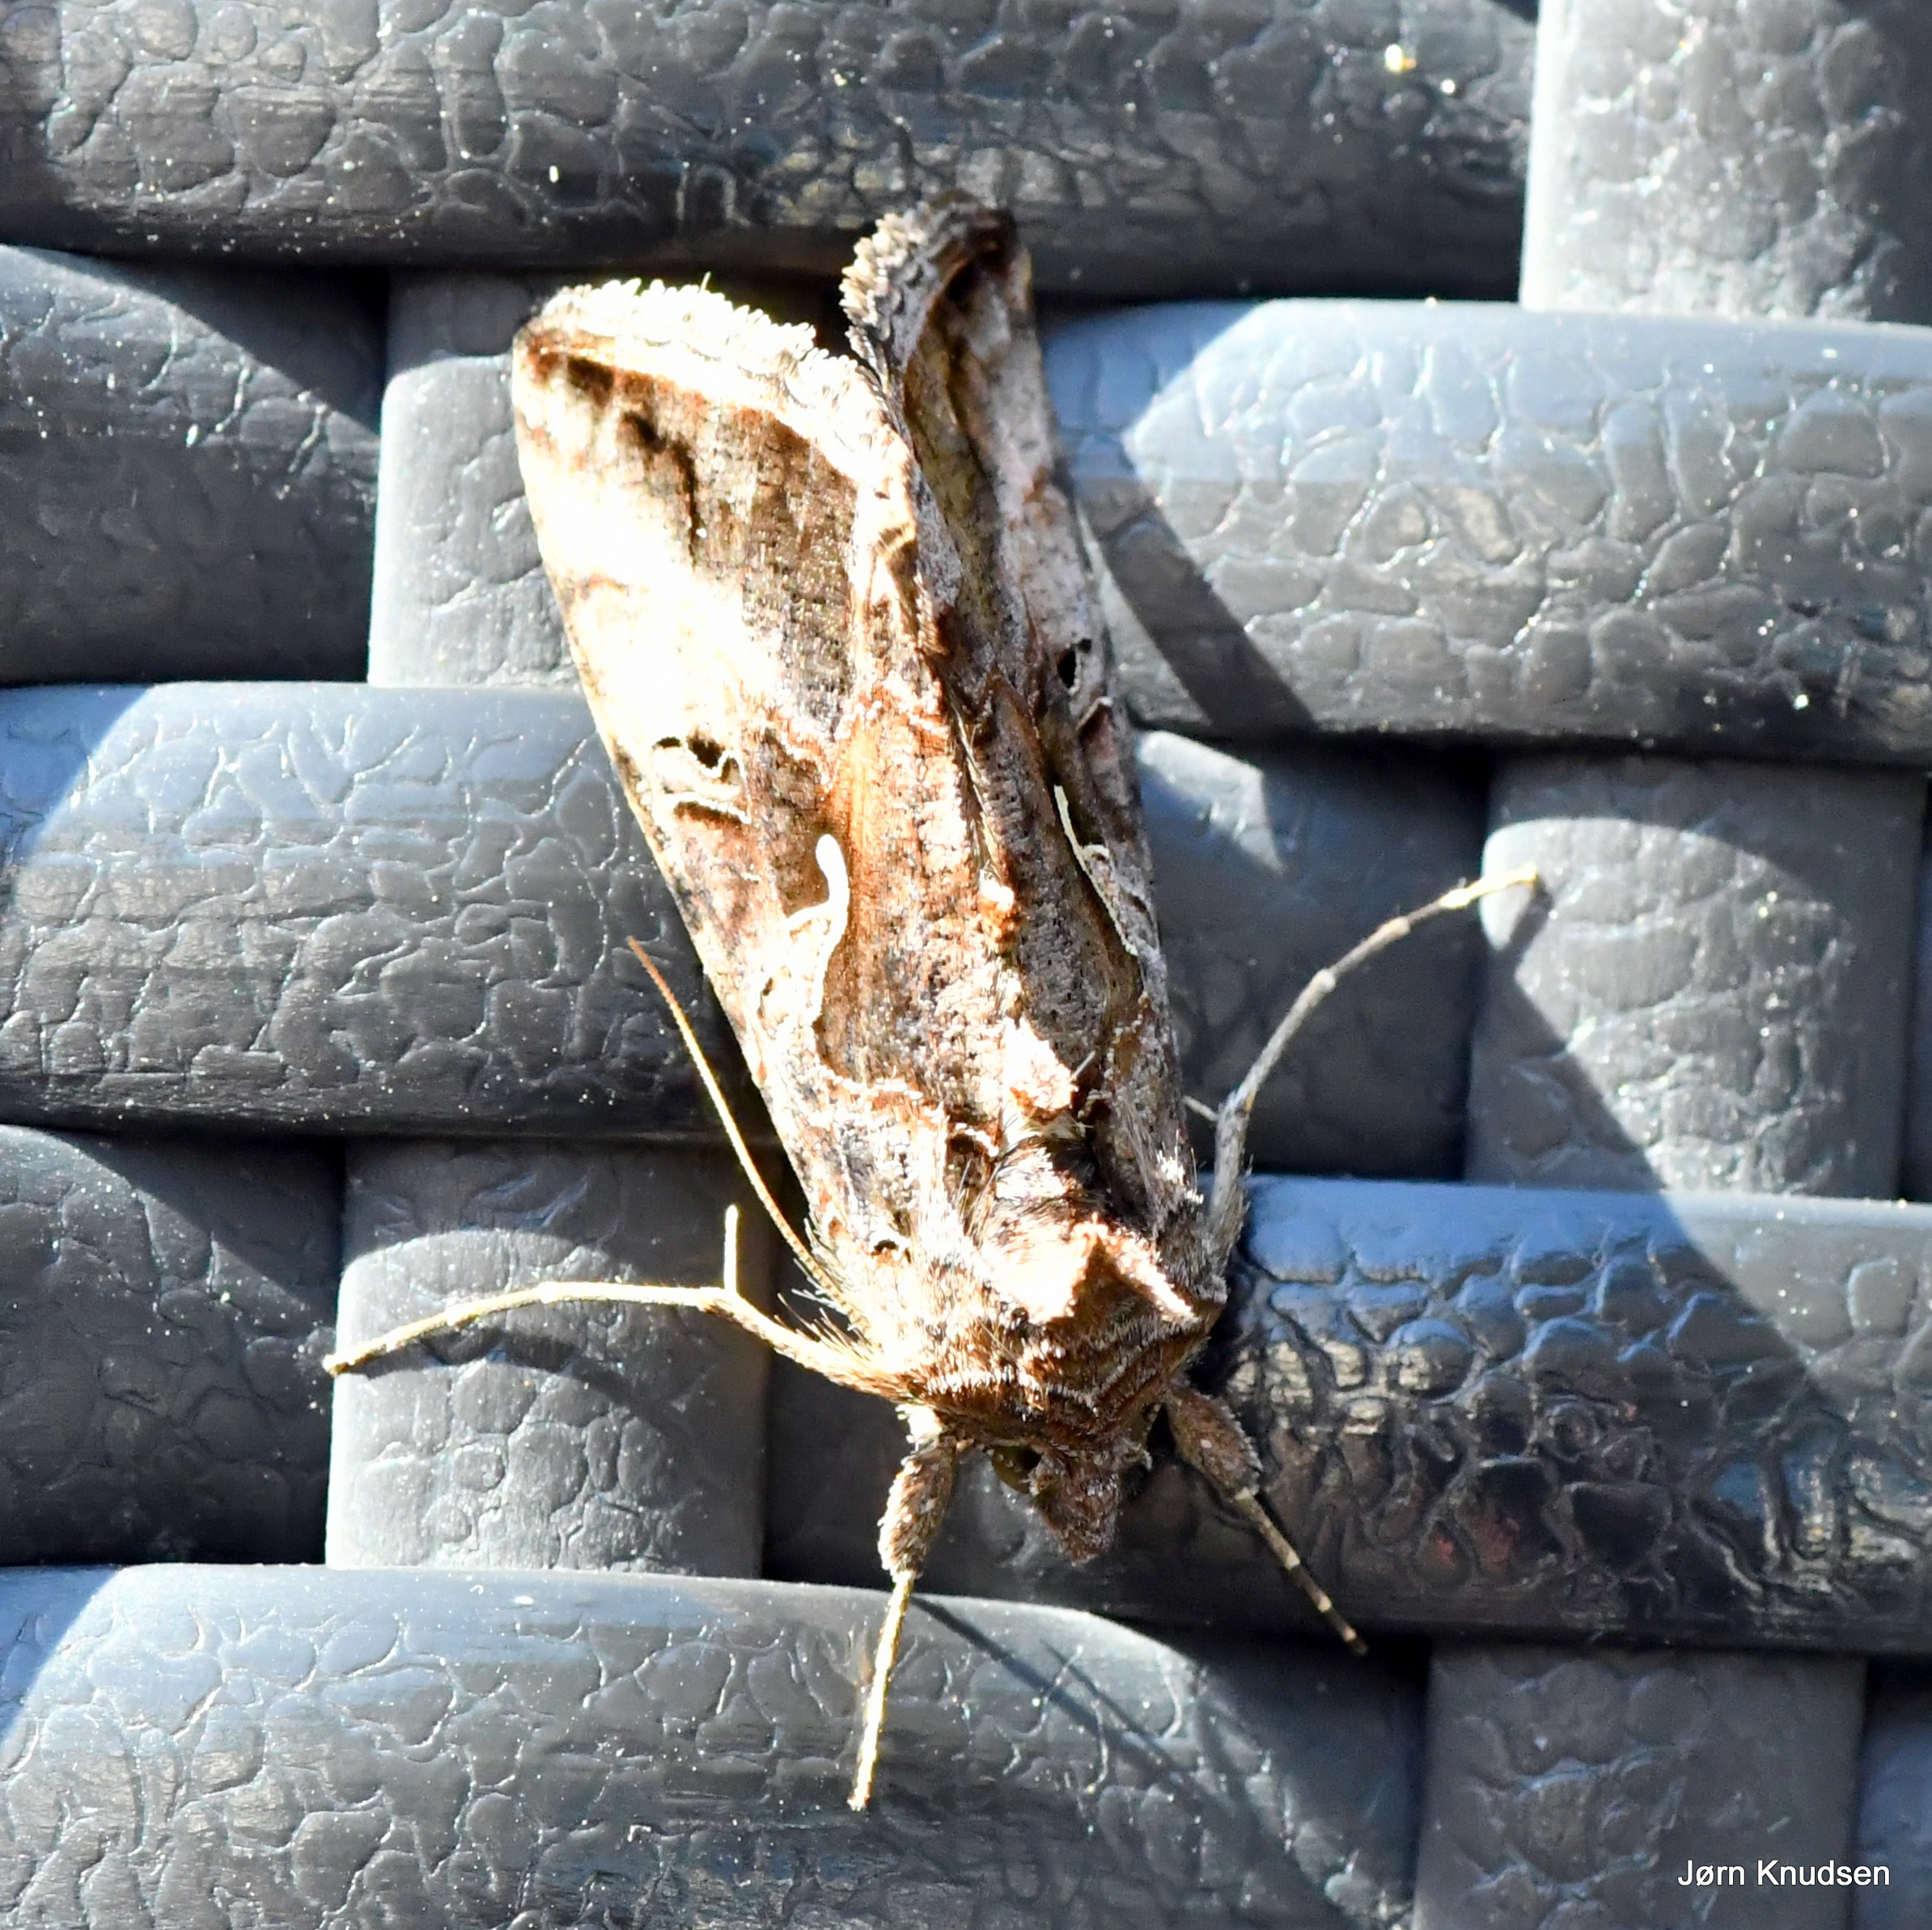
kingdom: Animalia
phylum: Arthropoda
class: Insecta
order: Lepidoptera
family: Noctuidae
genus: Autographa
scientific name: Autographa gamma
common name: Gammaugle
